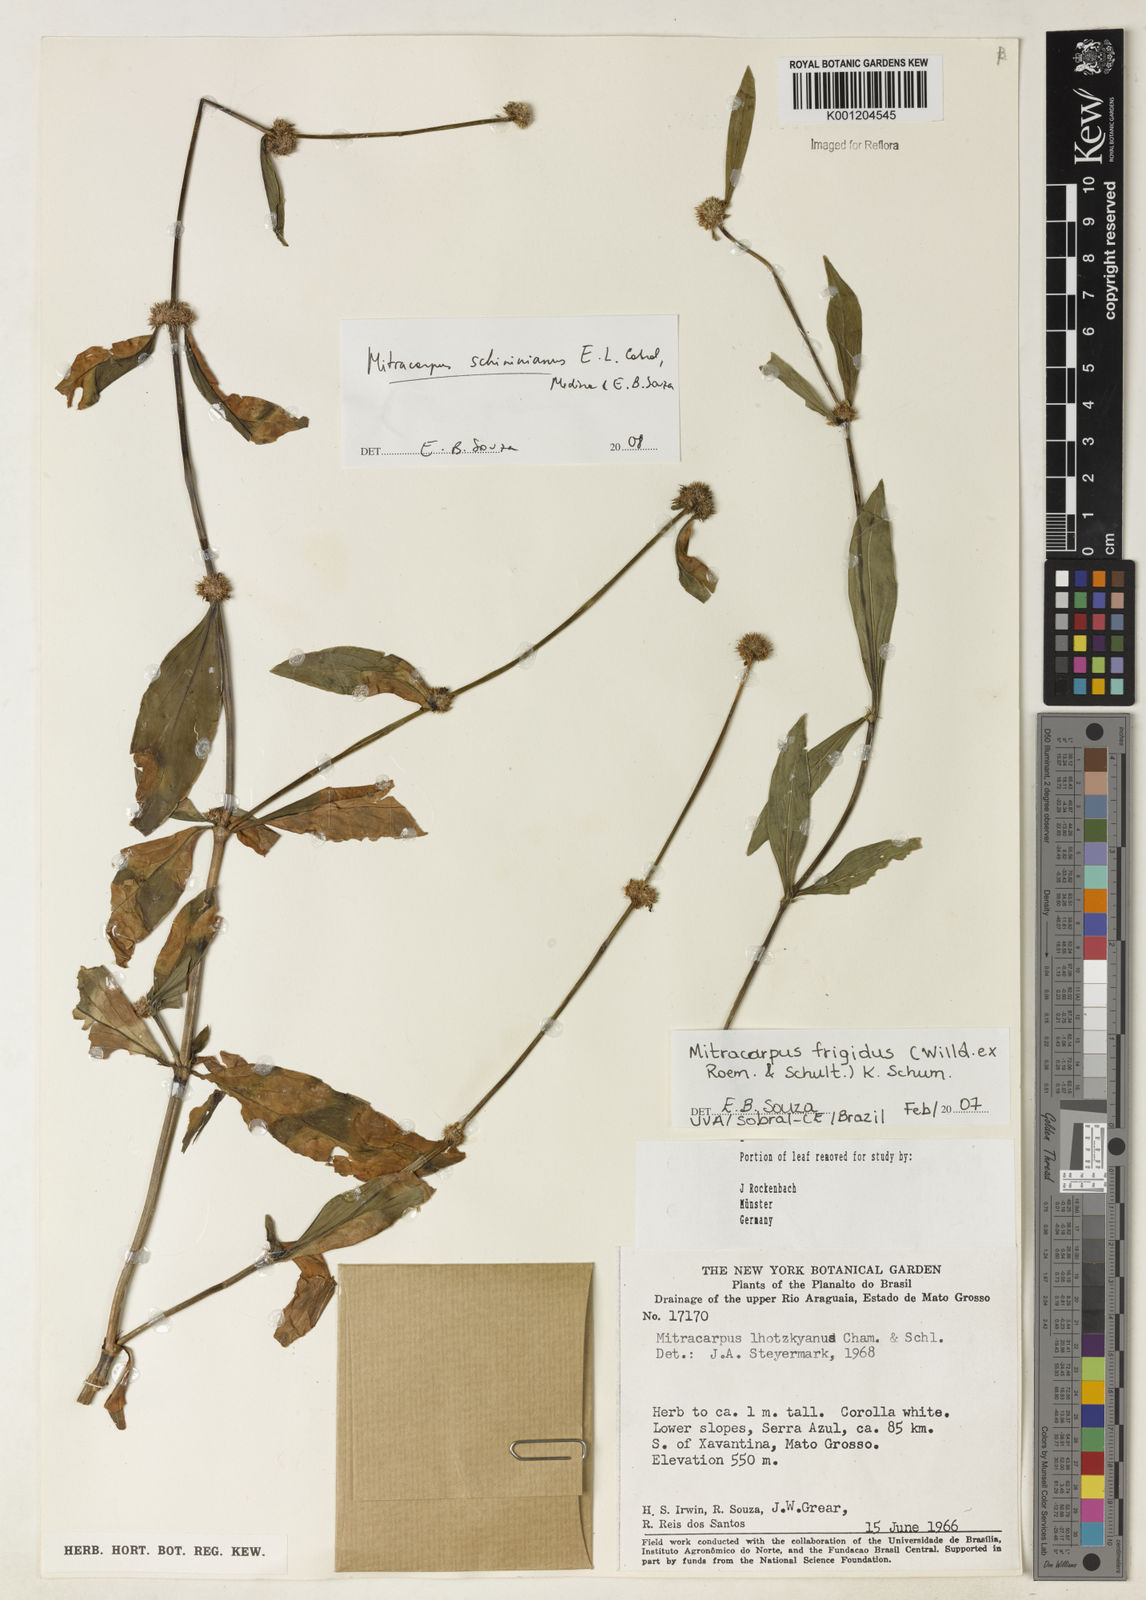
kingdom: Plantae
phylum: Tracheophyta
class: Magnoliopsida
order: Gentianales
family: Rubiaceae
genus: Mitracarpus
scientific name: Mitracarpus
